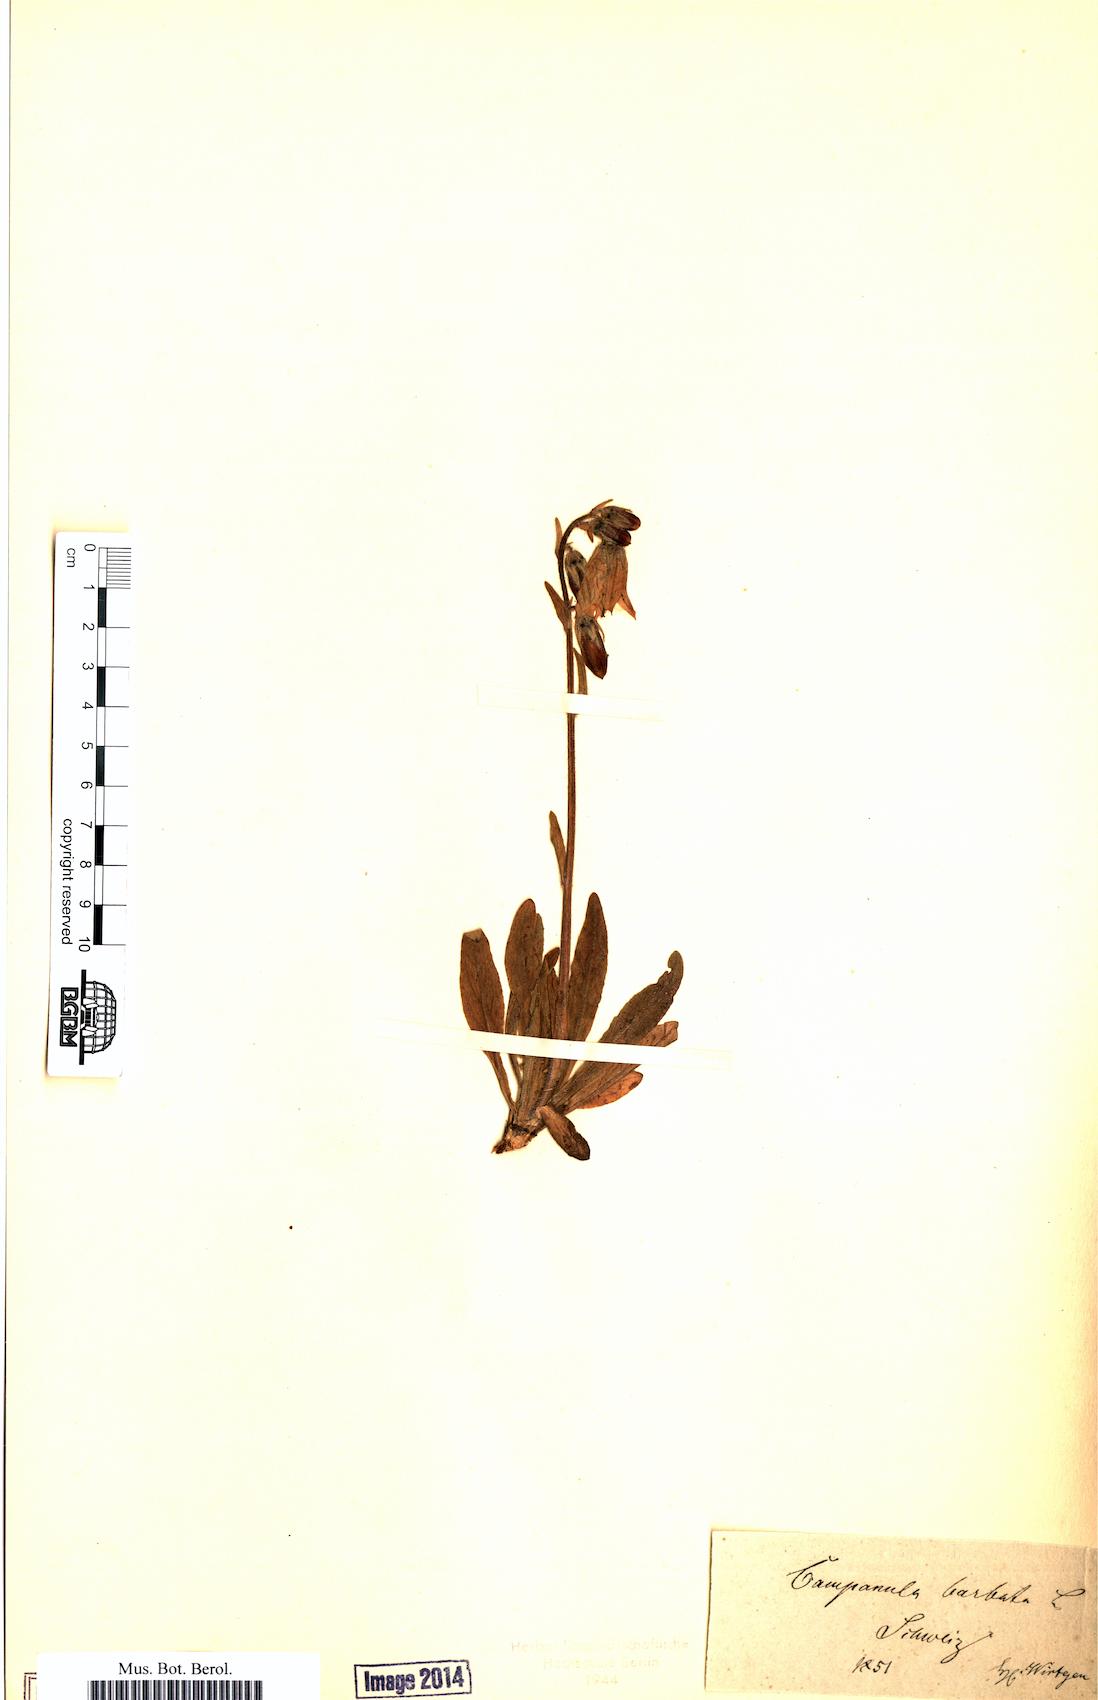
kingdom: Plantae
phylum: Tracheophyta
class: Magnoliopsida
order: Asterales
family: Campanulaceae
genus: Campanula
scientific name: Campanula barbata
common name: Bearded bellflower
